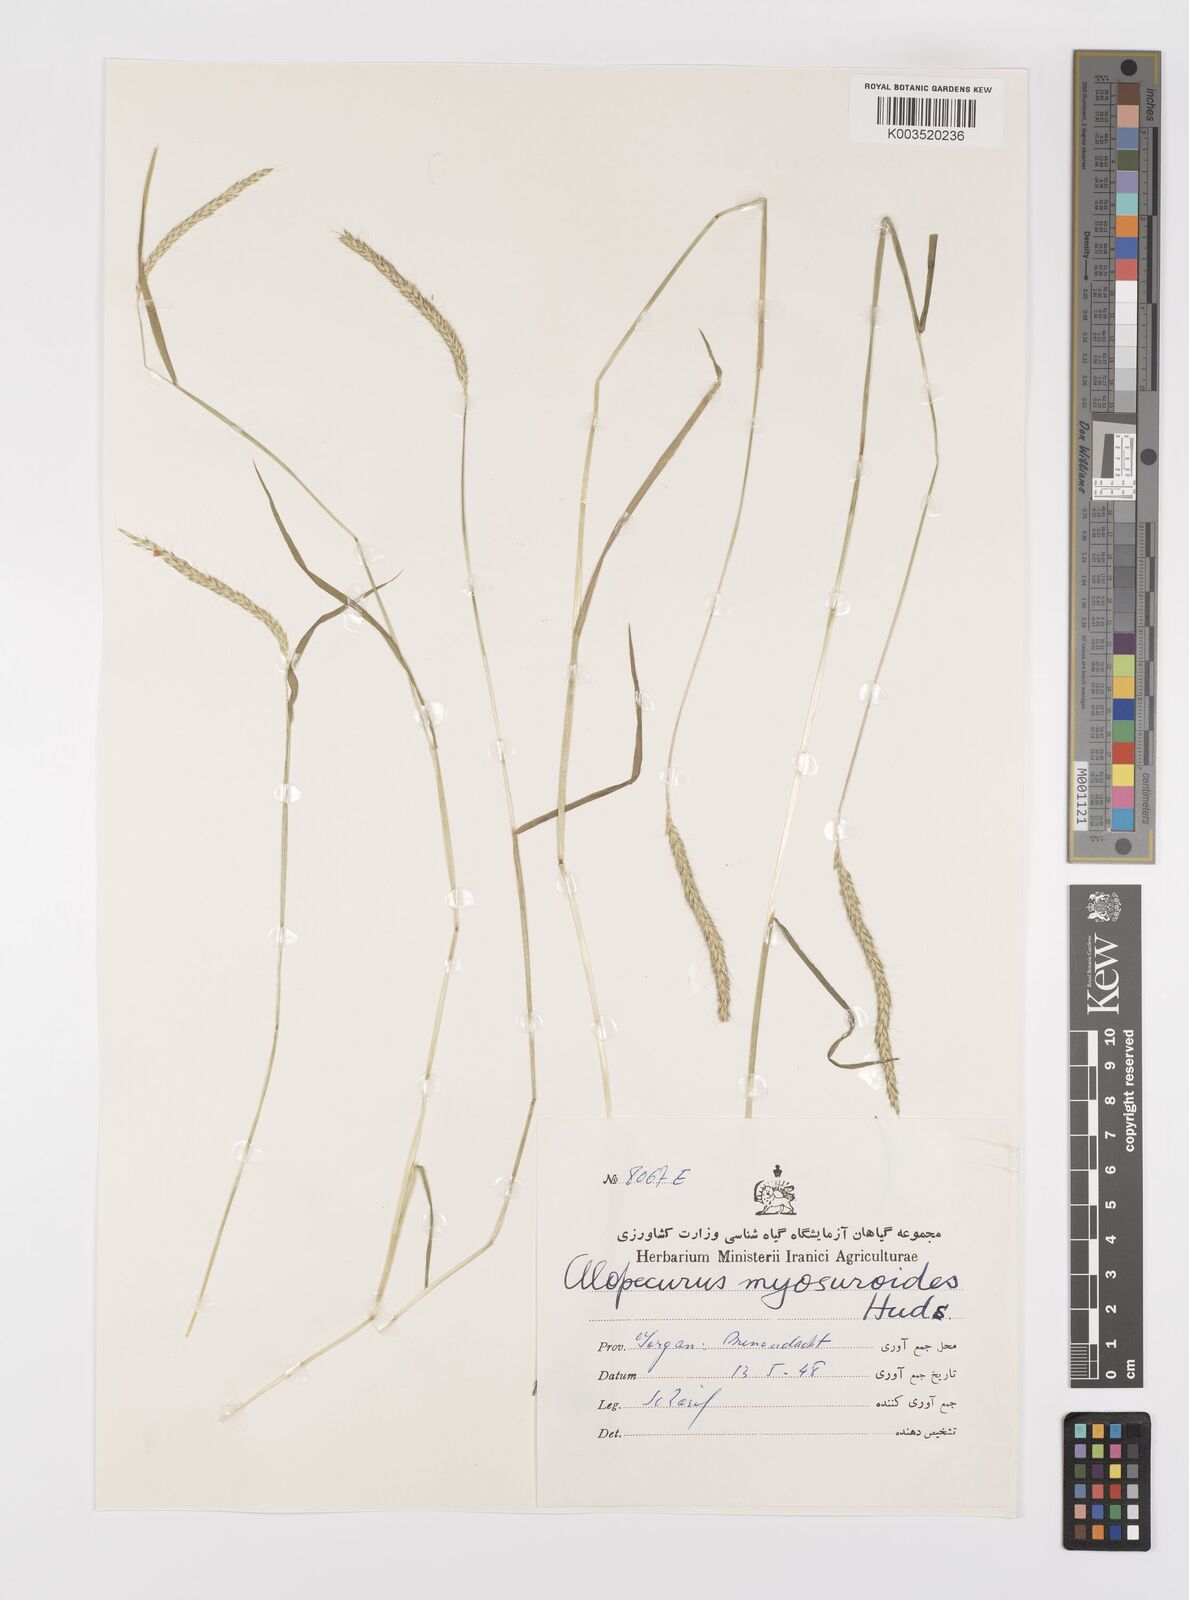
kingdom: Plantae
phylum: Tracheophyta
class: Liliopsida
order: Poales
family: Poaceae
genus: Alopecurus
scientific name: Alopecurus myosuroides
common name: Black-grass
